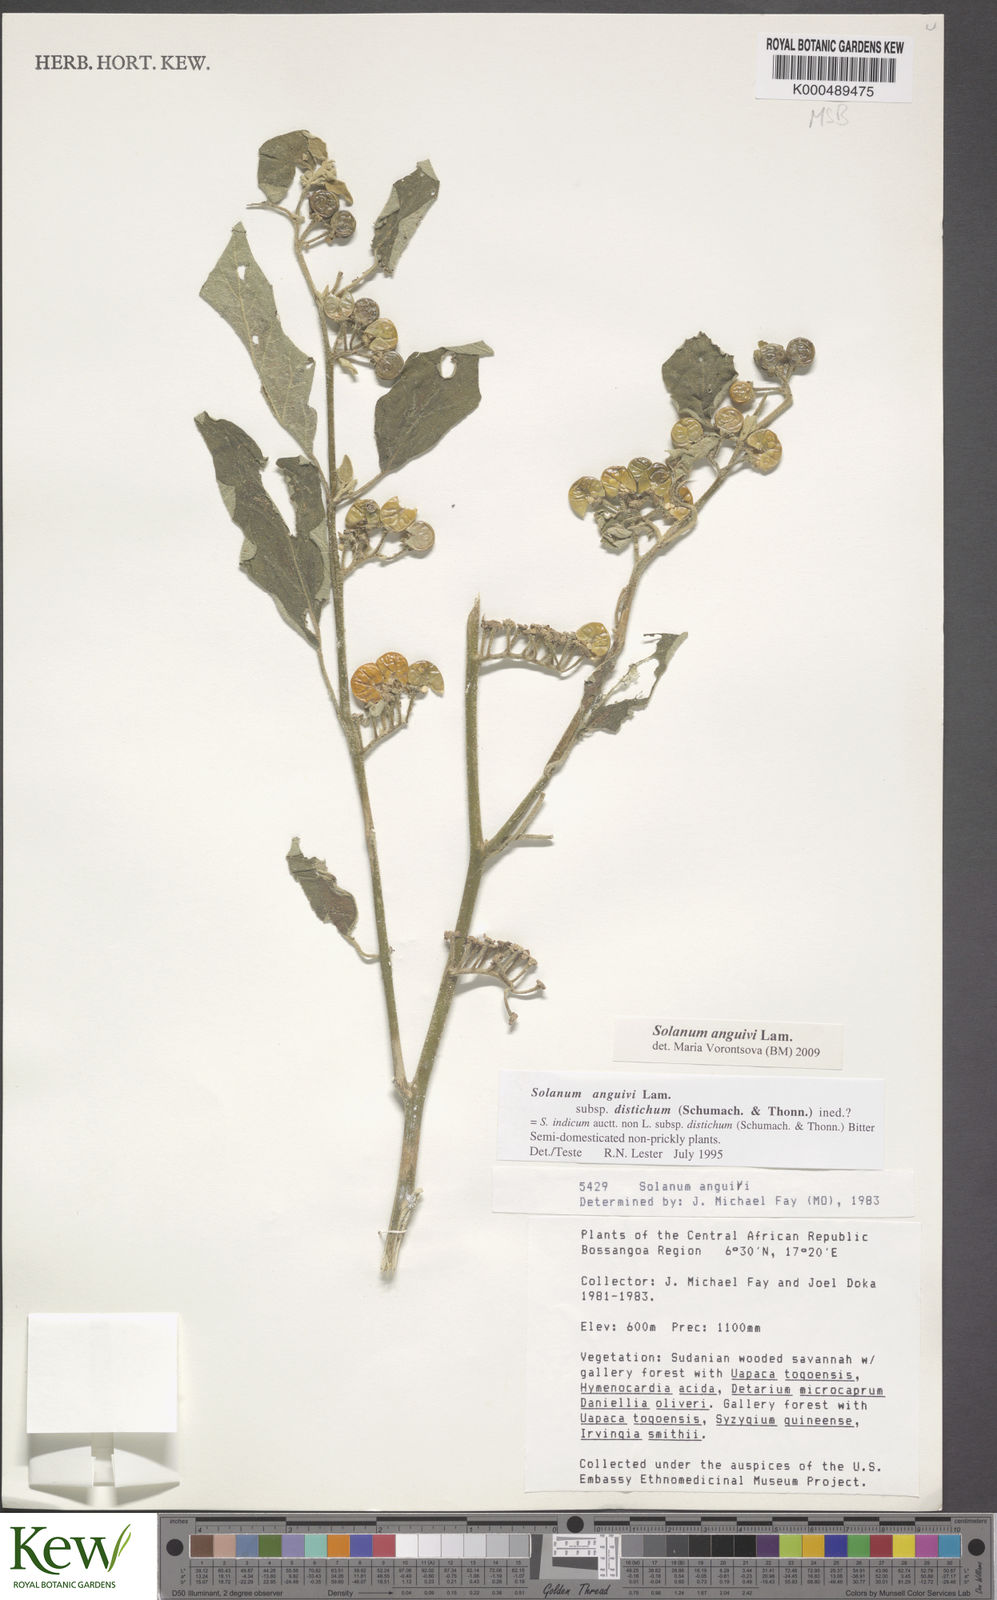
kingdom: Plantae
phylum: Tracheophyta
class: Magnoliopsida
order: Solanales
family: Solanaceae
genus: Solanum
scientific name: Solanum anguivi
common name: Forest bitterberry
